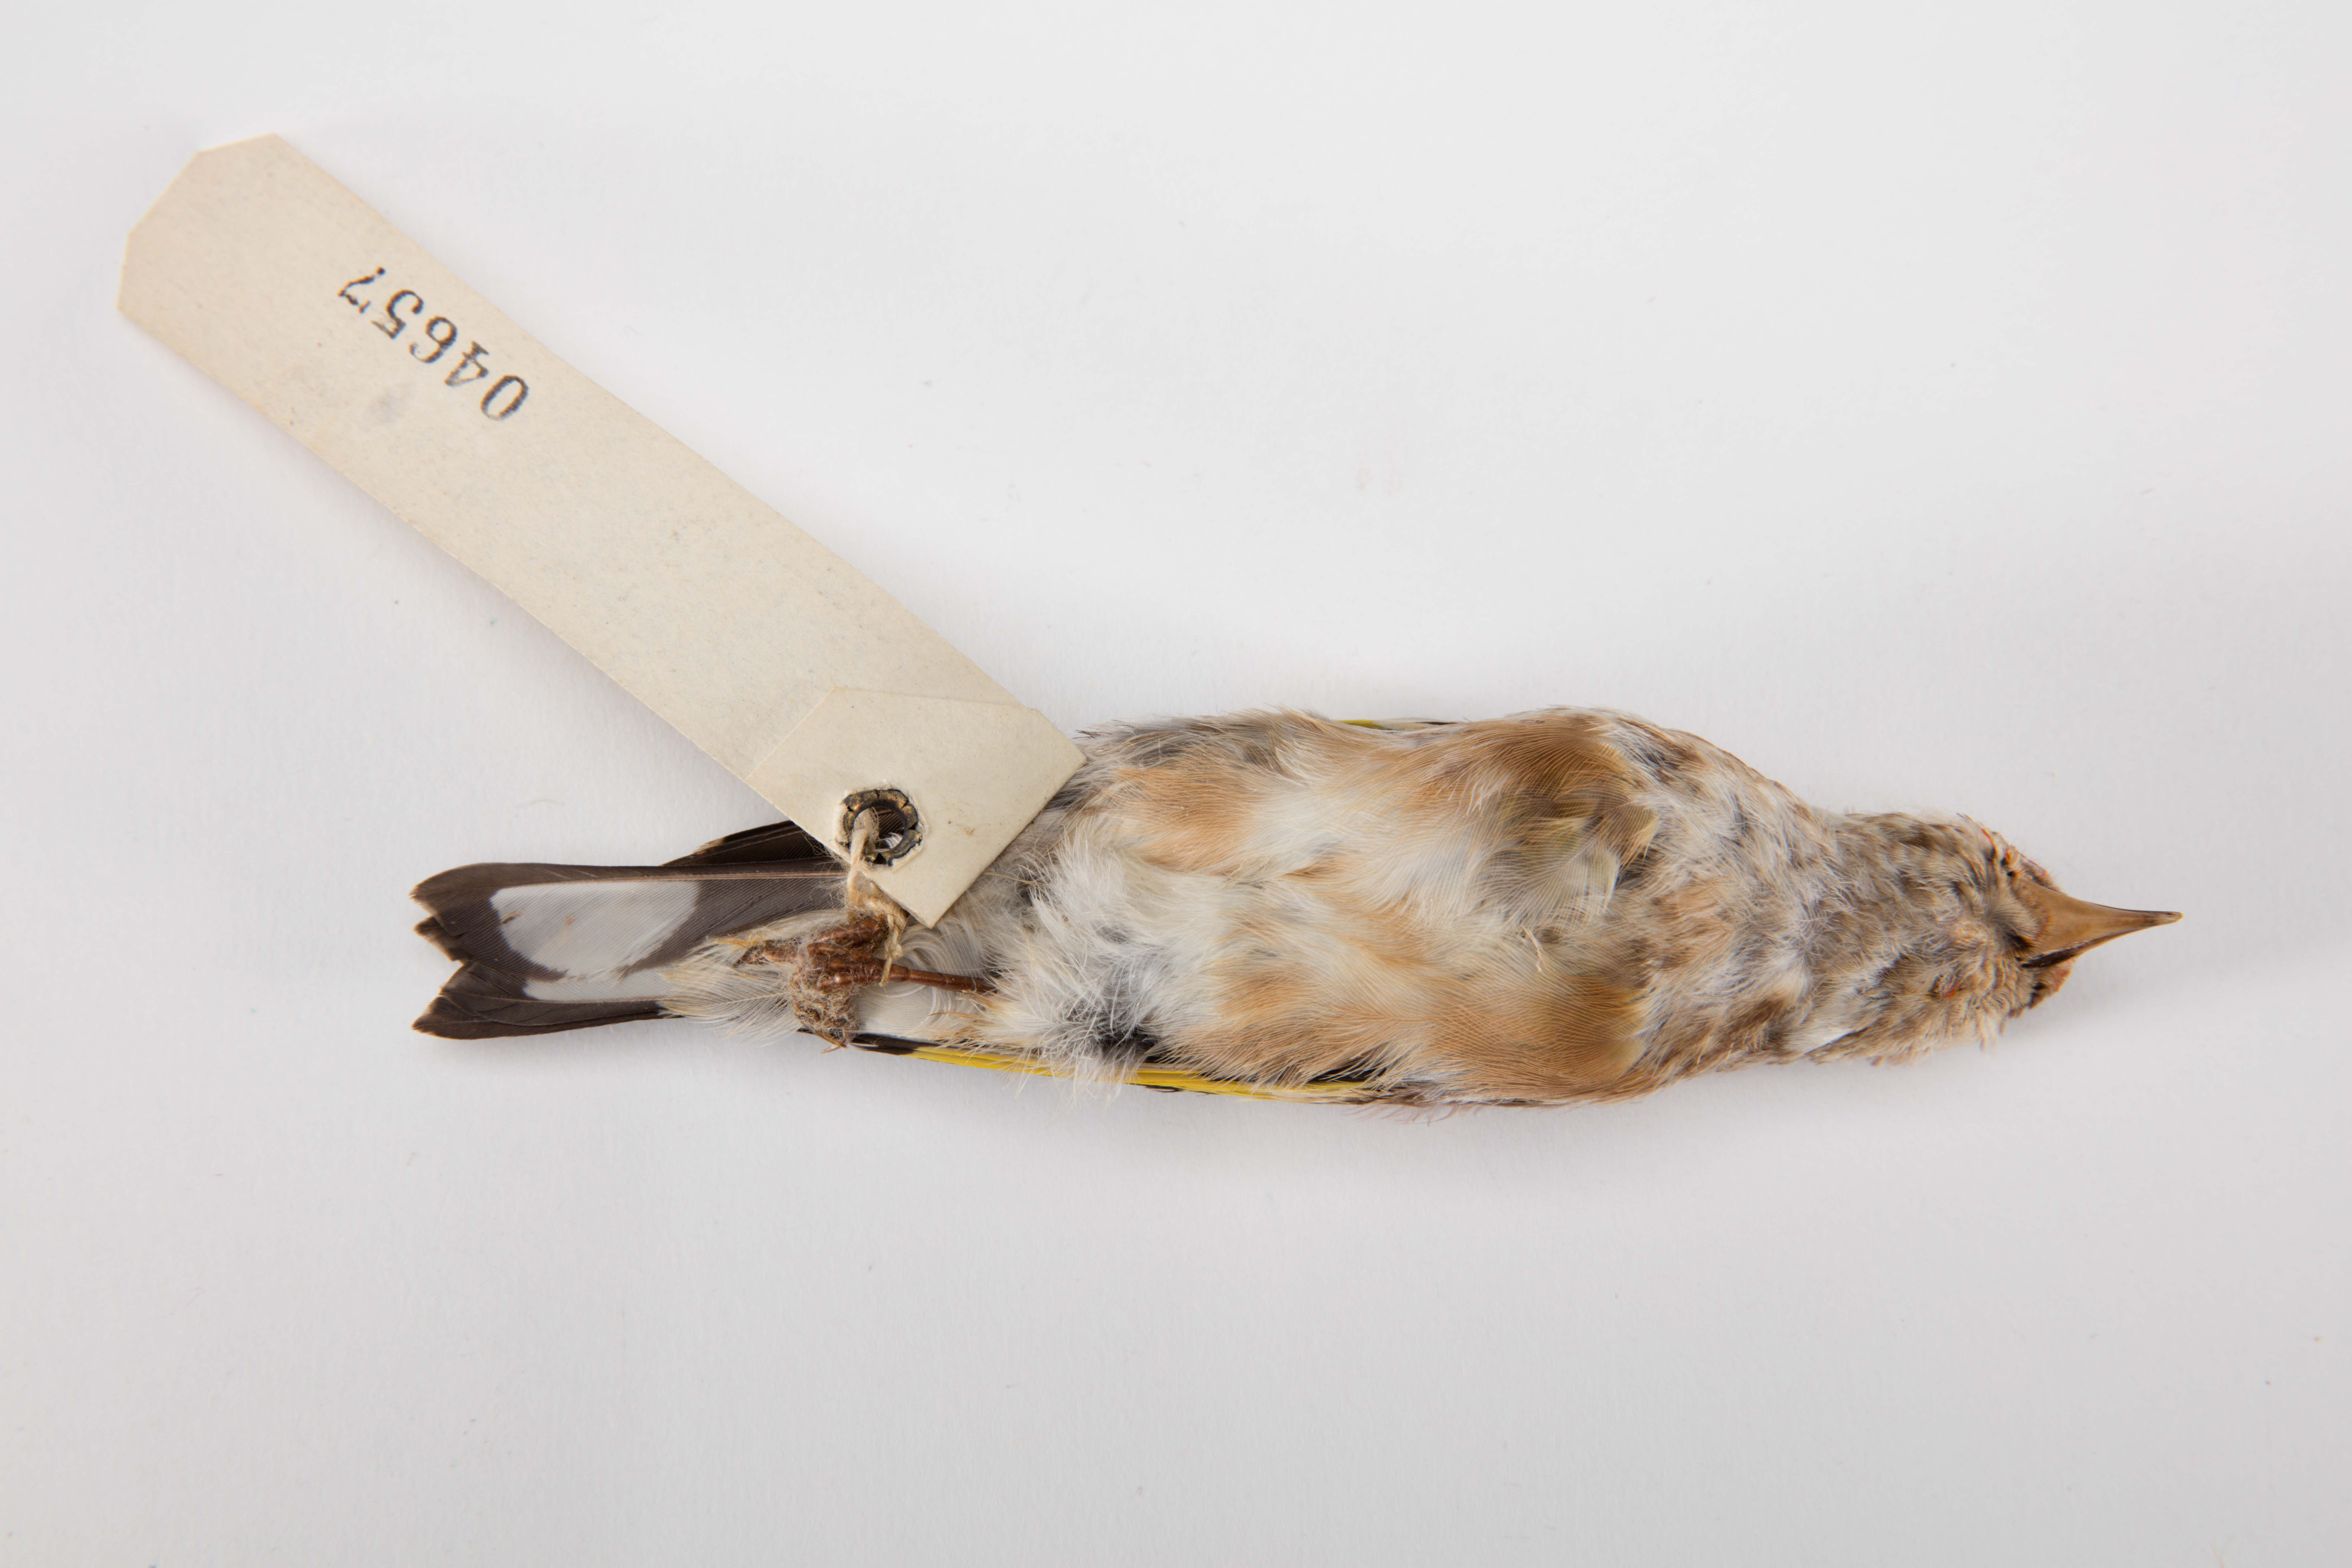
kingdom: Animalia
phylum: Chordata
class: Aves
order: Passeriformes
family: Fringillidae
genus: Carduelis
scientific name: Carduelis carduelis
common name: European goldfinch
